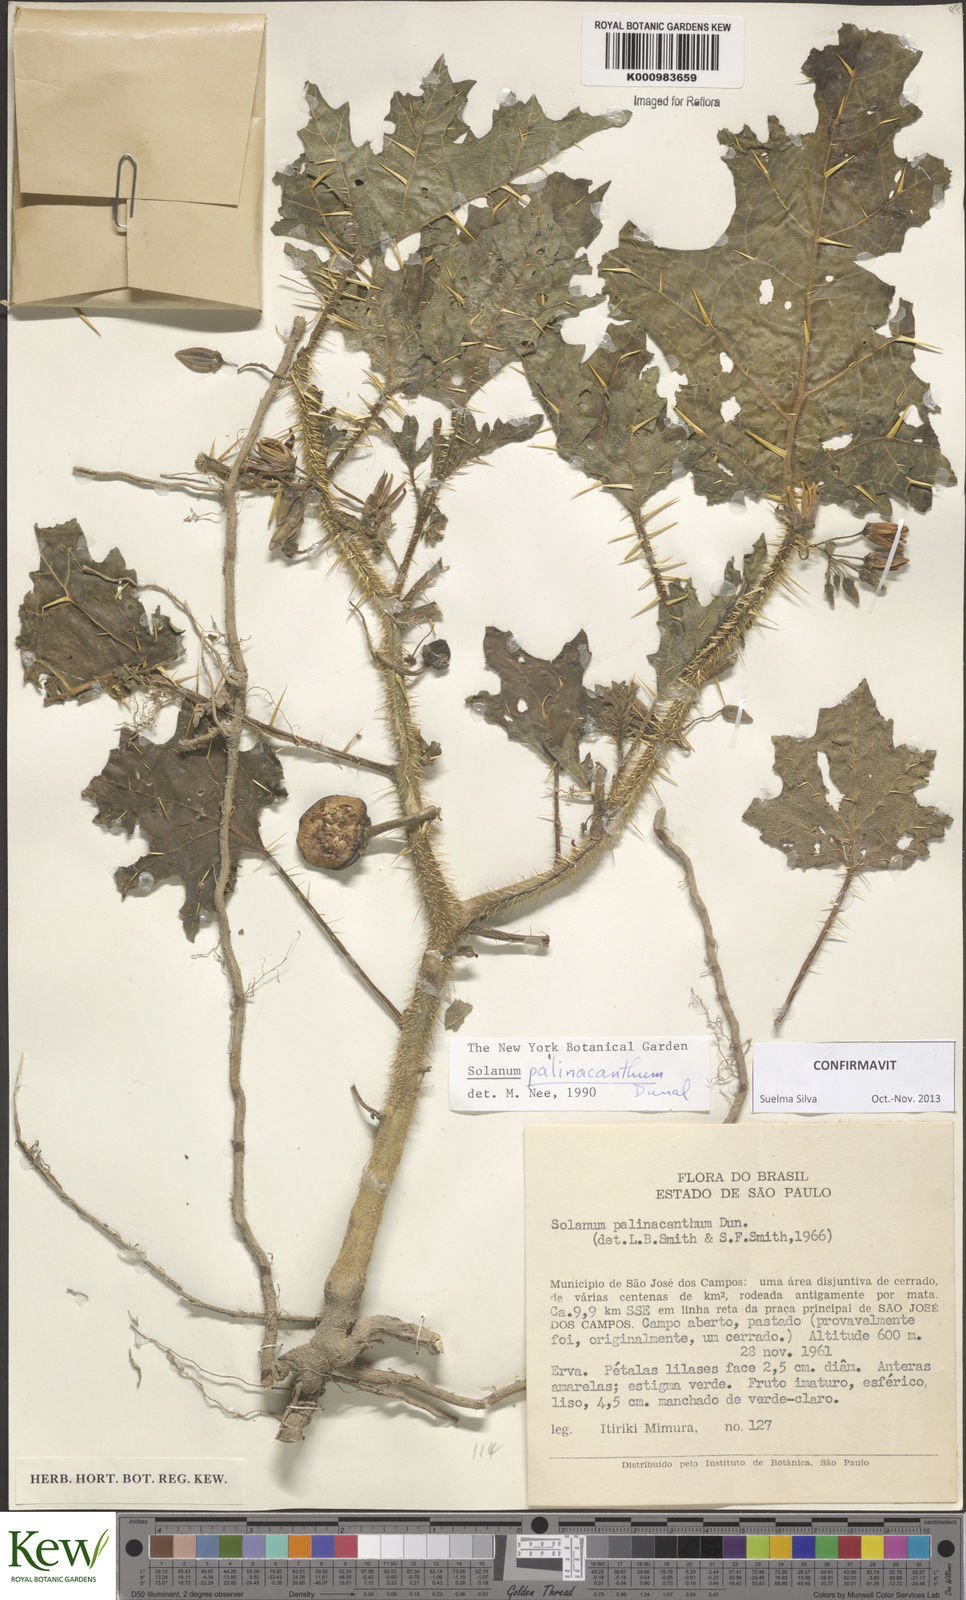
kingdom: Plantae
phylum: Tracheophyta
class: Magnoliopsida
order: Solanales
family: Solanaceae
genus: Solanum
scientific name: Solanum palinacanthum
